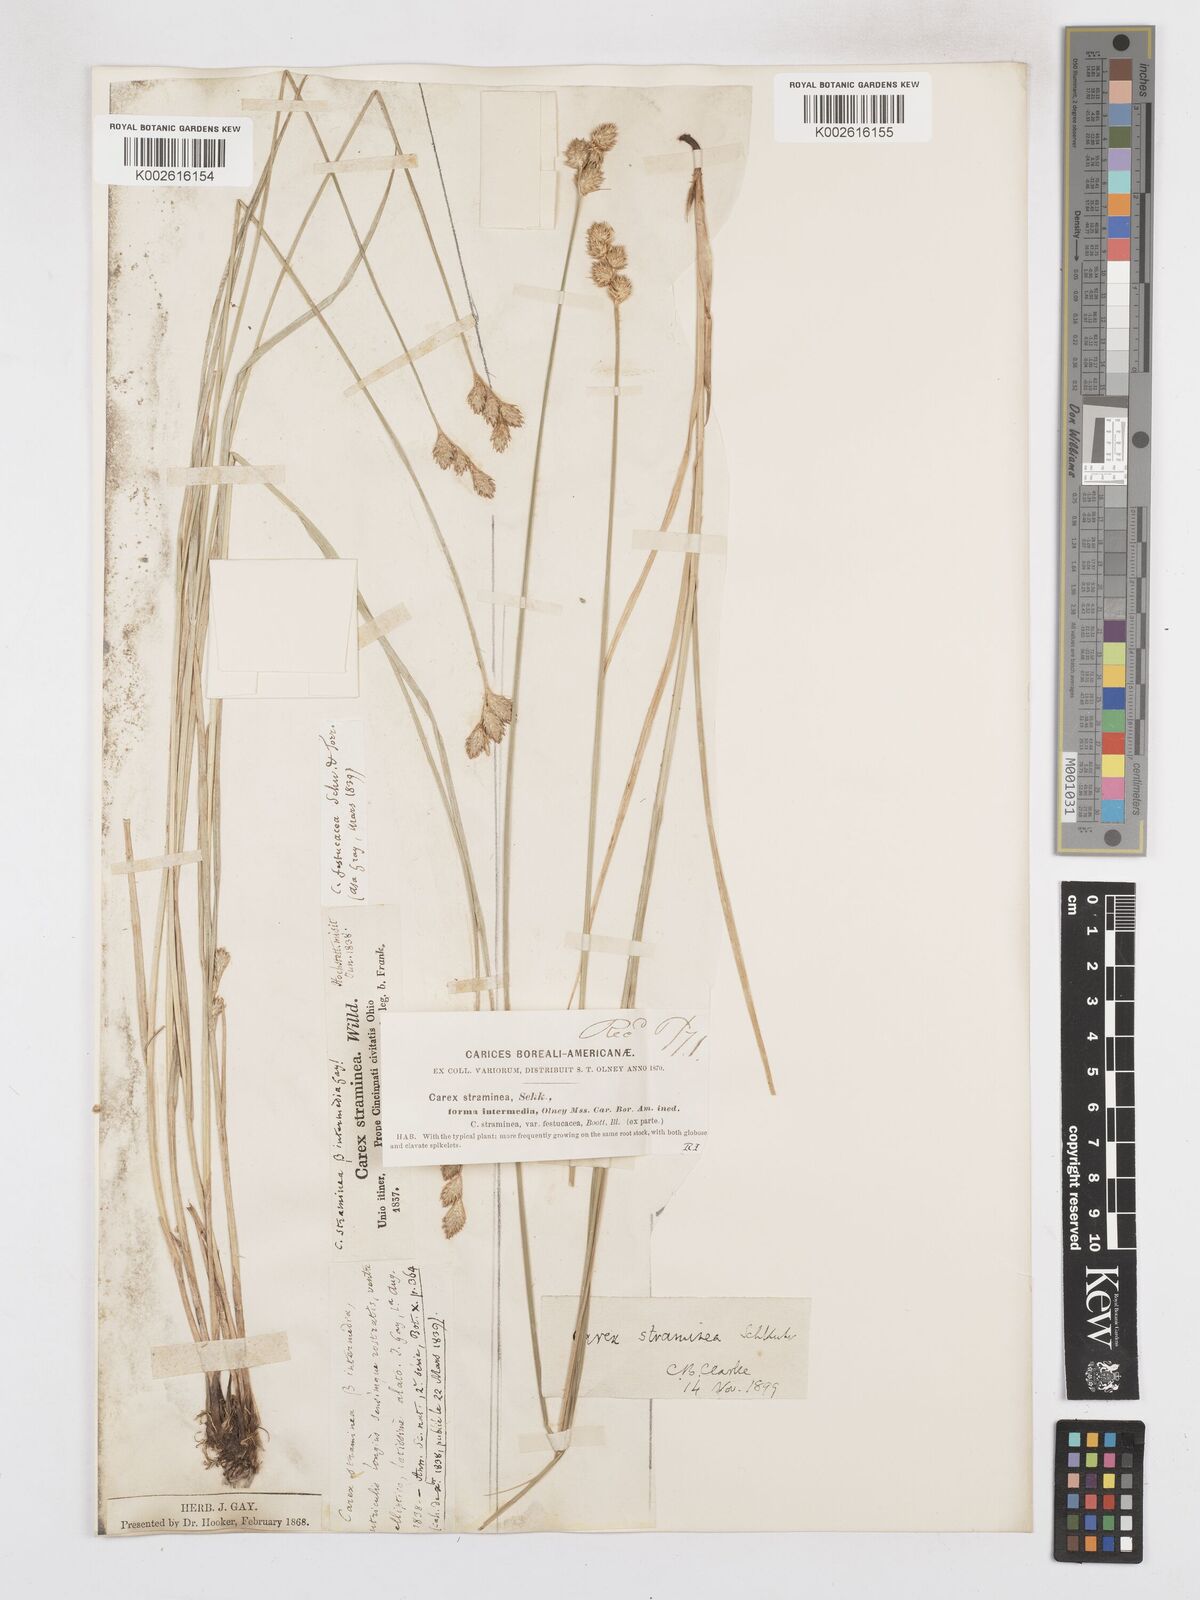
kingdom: Plantae
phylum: Tracheophyta
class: Liliopsida
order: Poales
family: Cyperaceae
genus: Carex
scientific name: Carex brevior
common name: Brevior sedge
